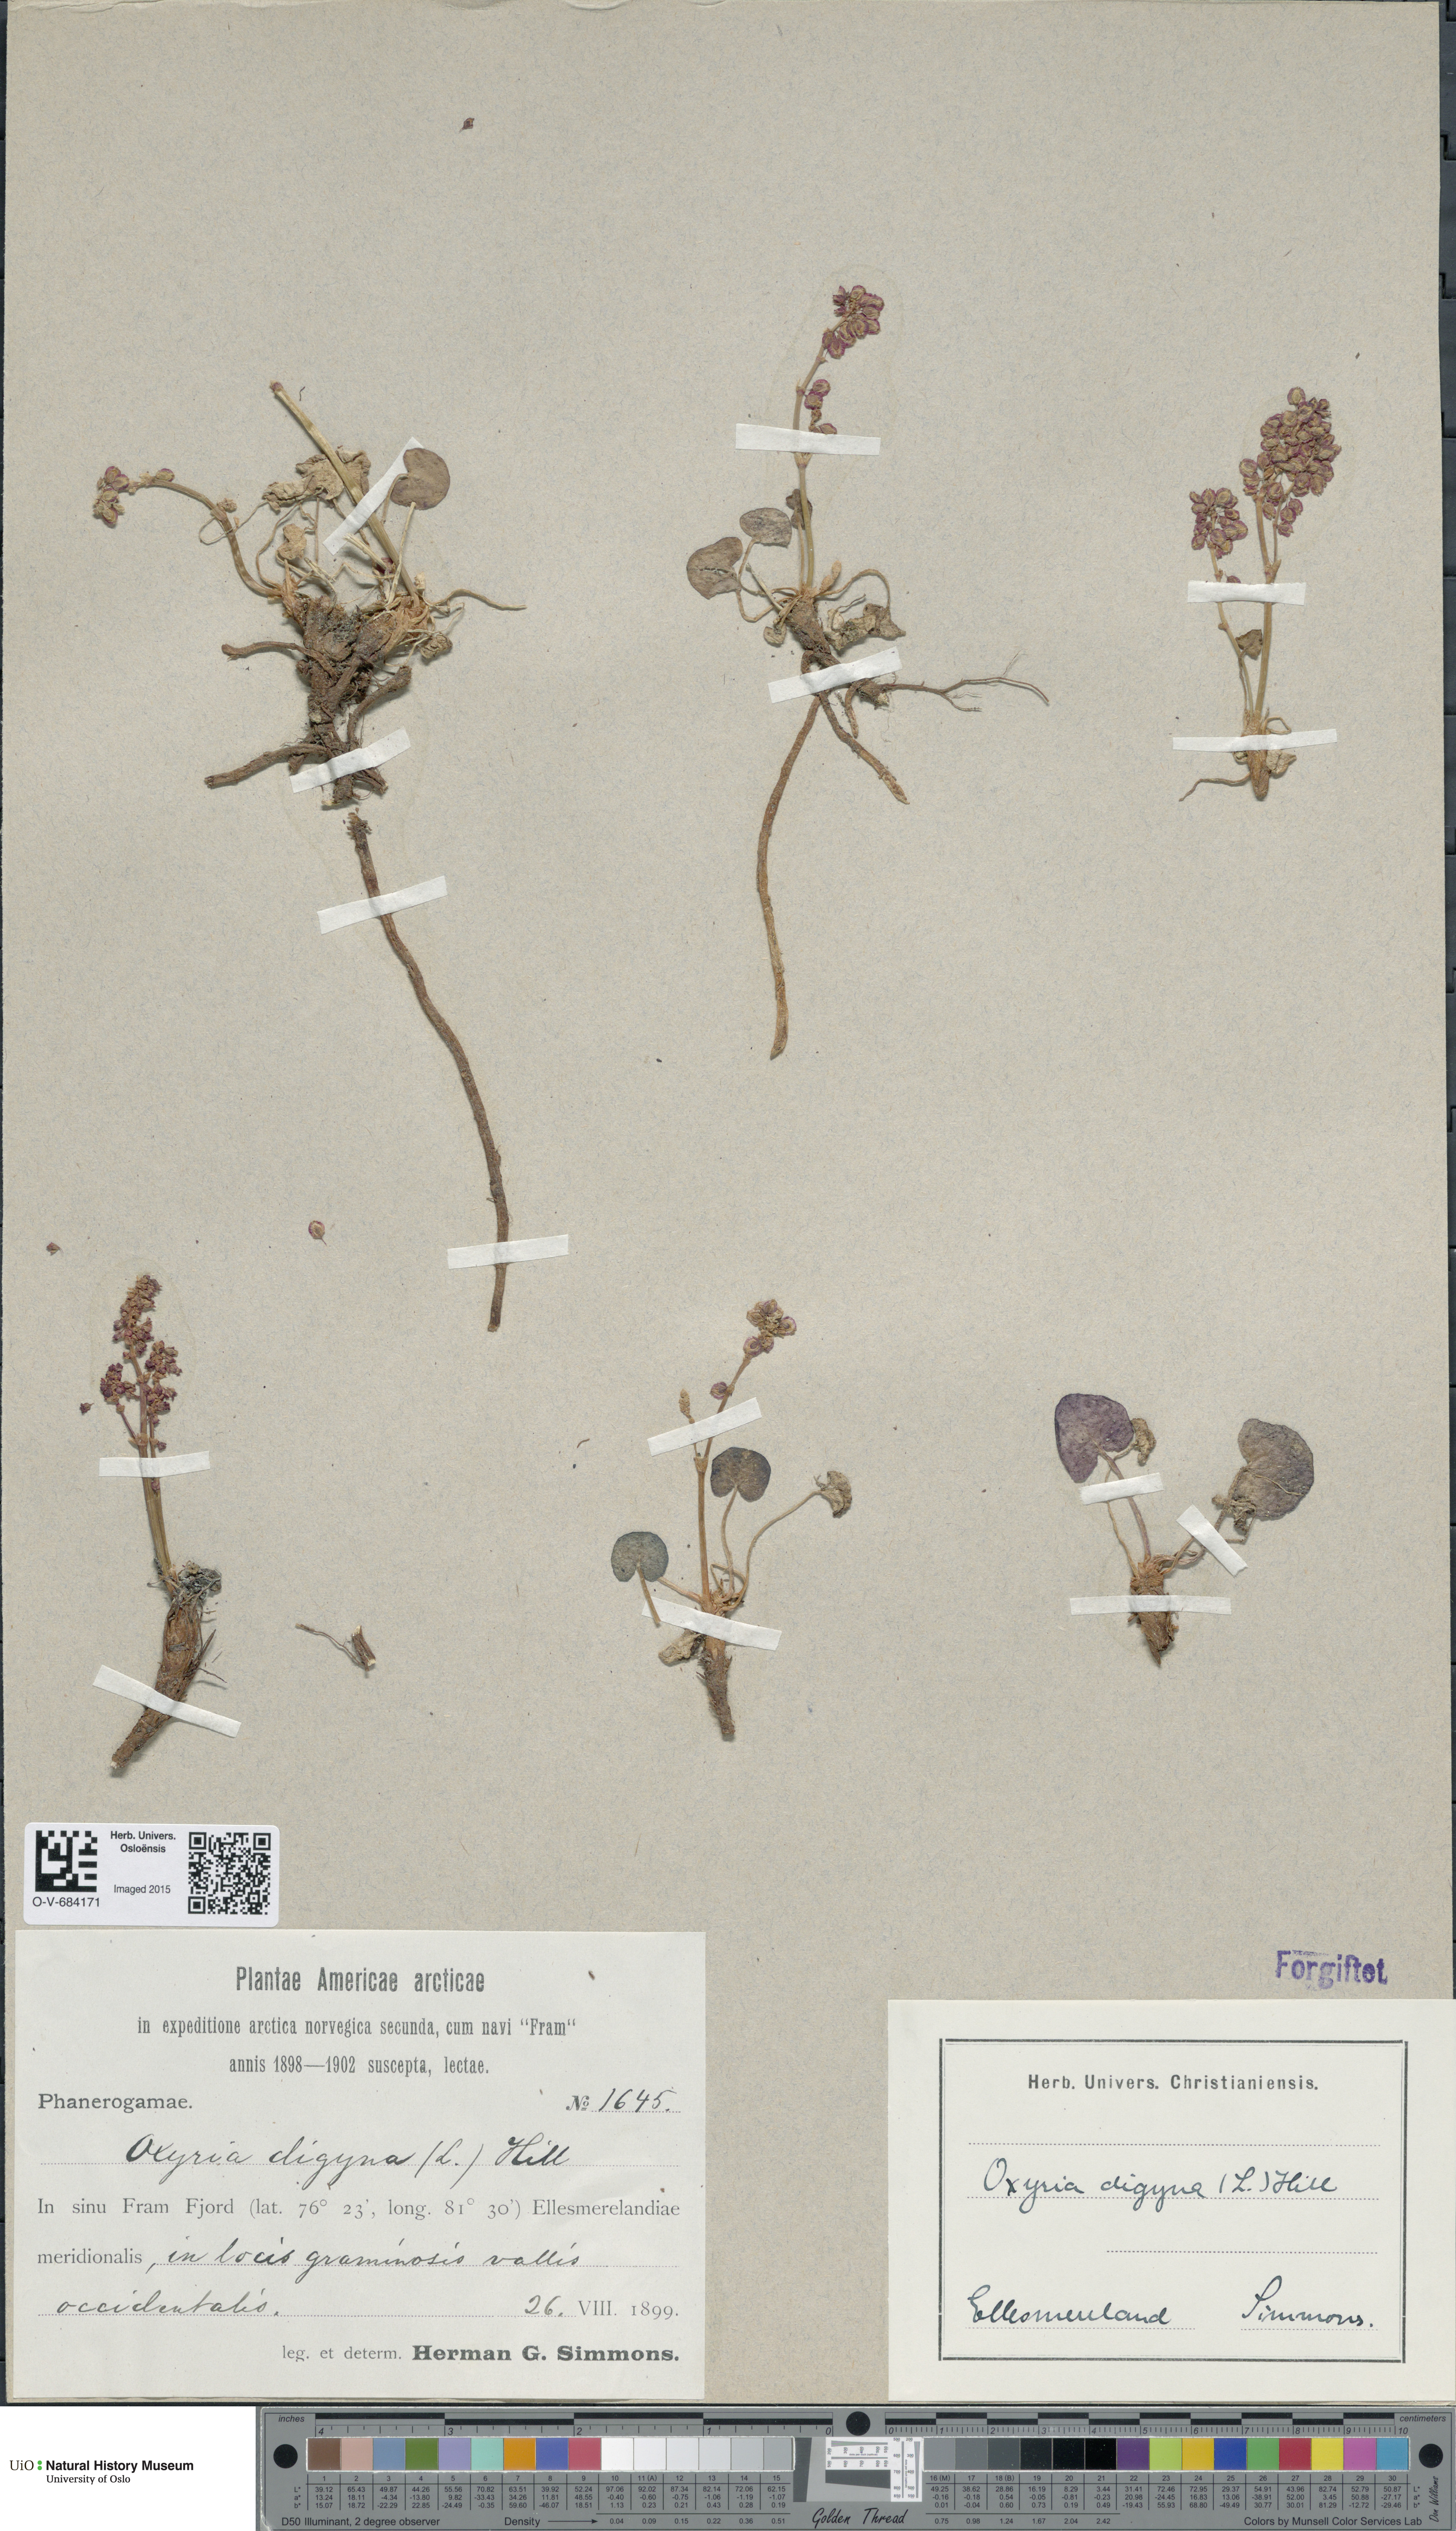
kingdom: Plantae
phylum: Tracheophyta
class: Magnoliopsida
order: Caryophyllales
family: Polygonaceae
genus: Oxyria
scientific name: Oxyria digyna
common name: Alpine mountain-sorrel
